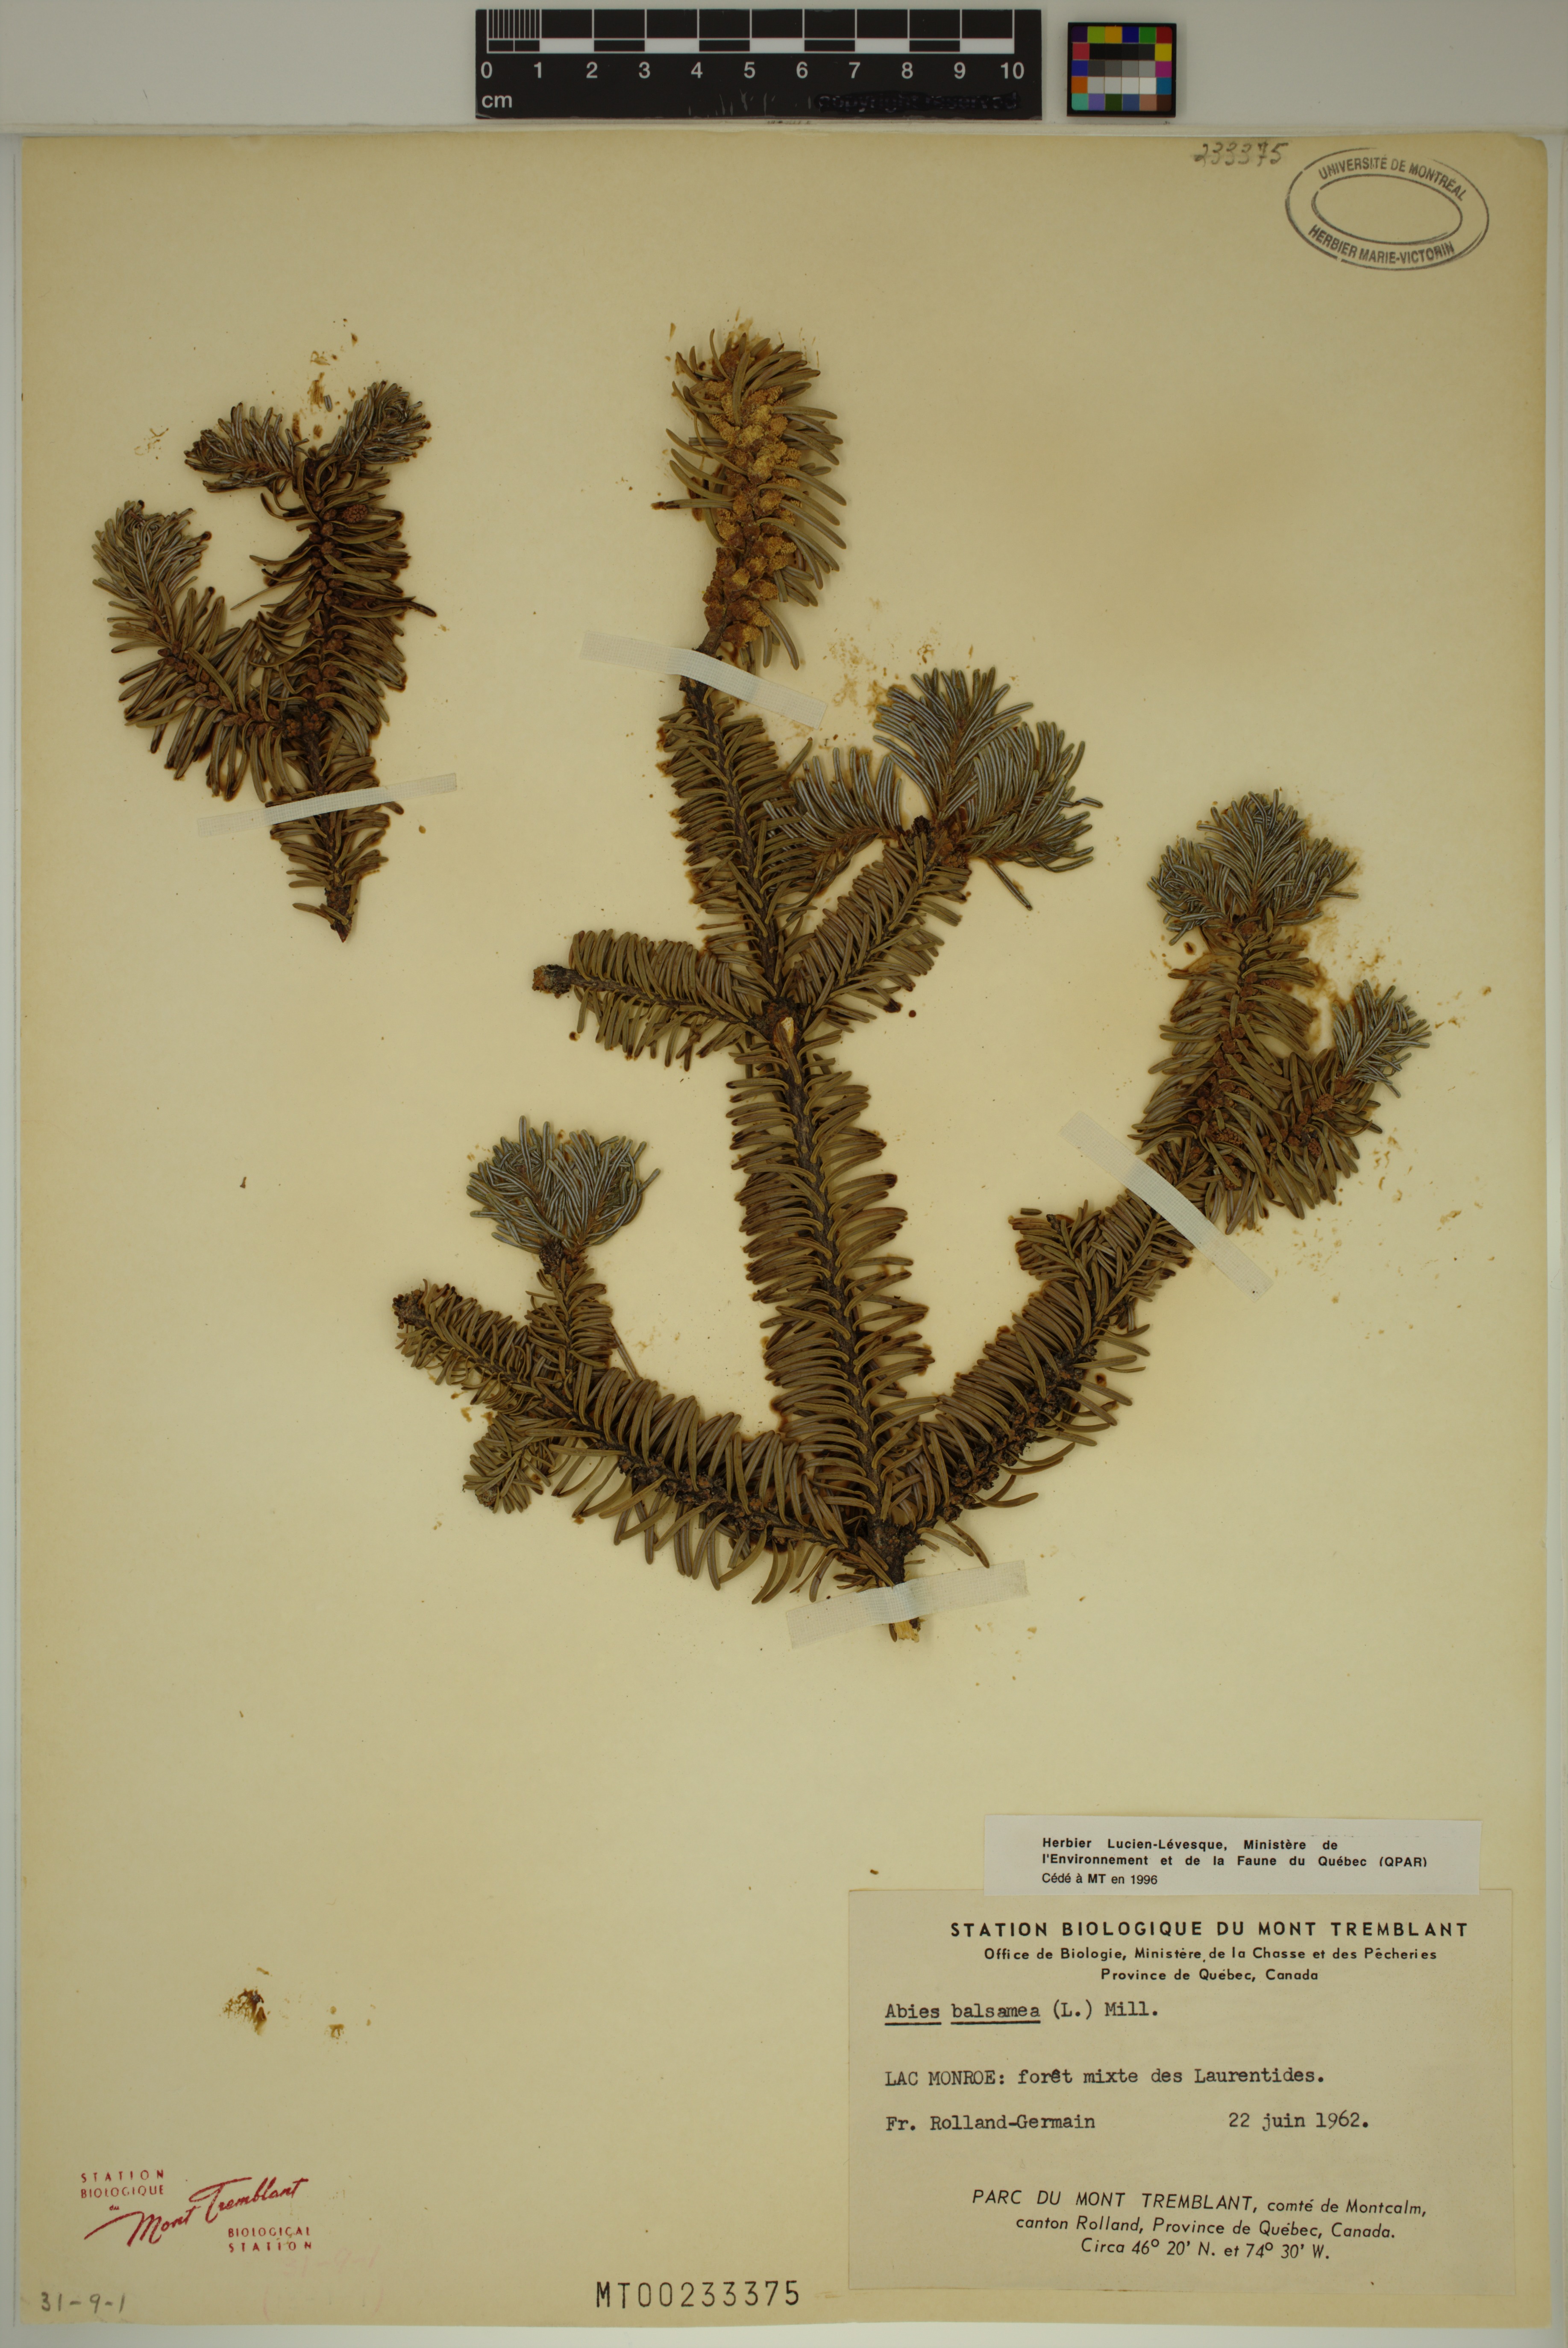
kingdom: Plantae
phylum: Tracheophyta
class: Pinopsida
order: Pinales
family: Pinaceae
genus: Abies
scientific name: Abies balsamea
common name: Balsam fir
